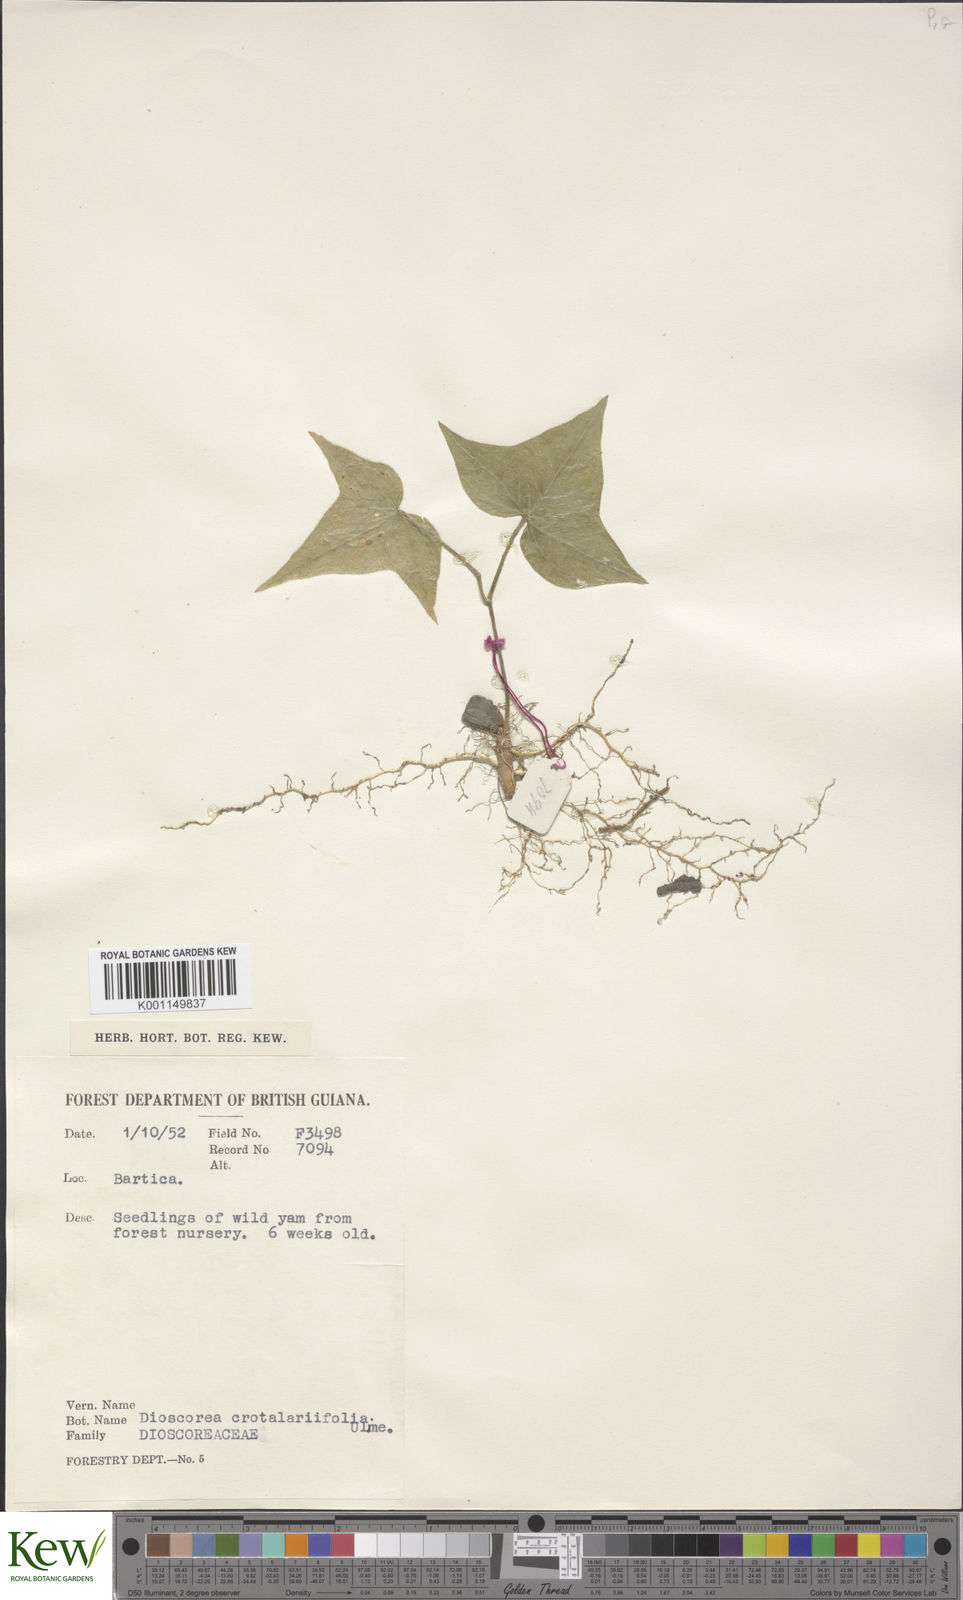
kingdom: Plantae
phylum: Tracheophyta
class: Liliopsida
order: Dioscoreales
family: Dioscoreaceae
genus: Dioscorea
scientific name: Dioscorea crotalariifolia
